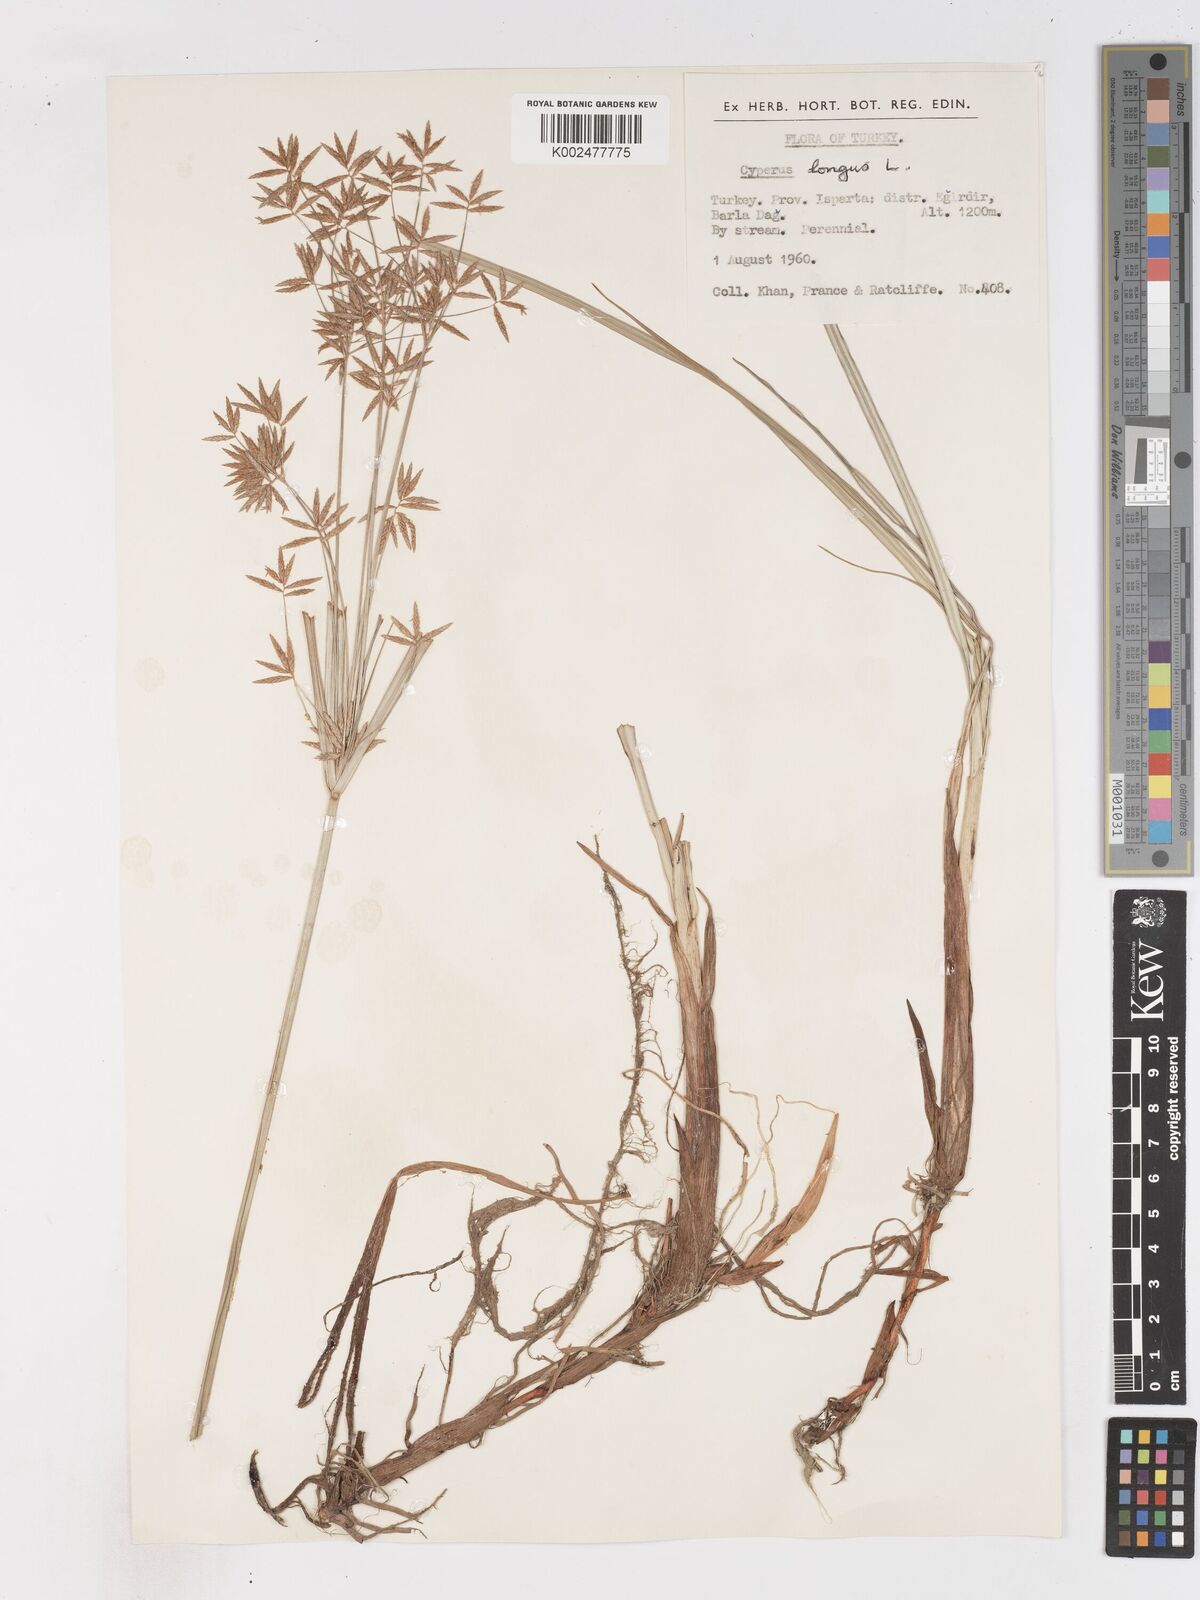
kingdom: Plantae
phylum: Tracheophyta
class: Liliopsida
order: Poales
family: Cyperaceae
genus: Cyperus
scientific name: Cyperus longus
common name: Galingale
